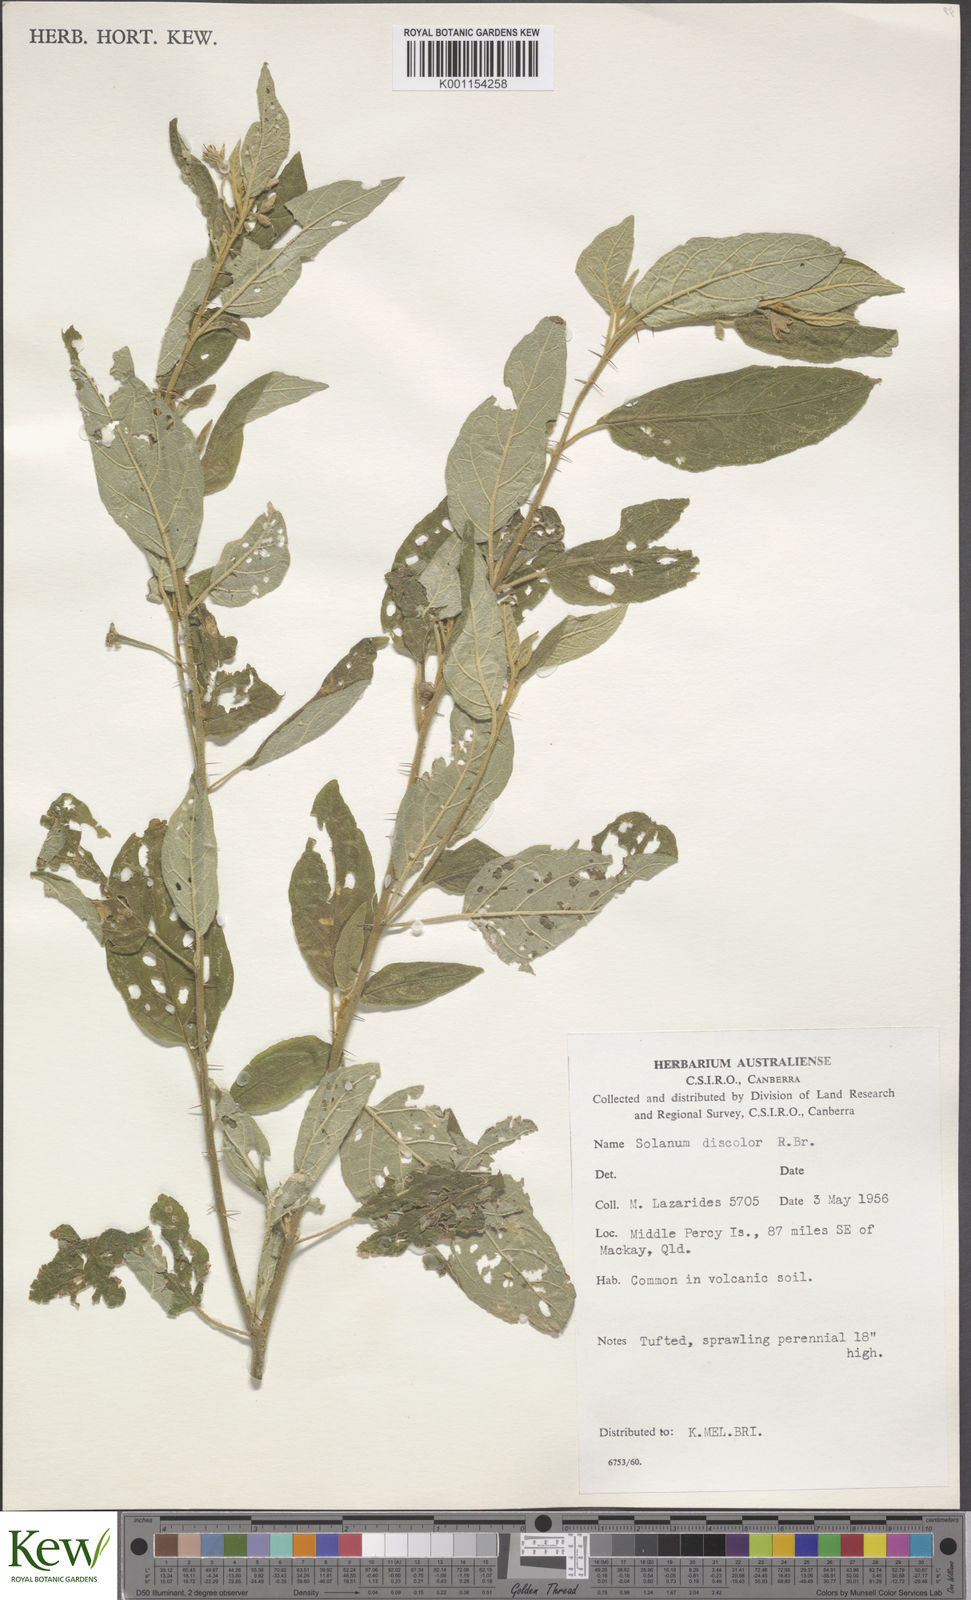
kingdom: Plantae
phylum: Tracheophyta
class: Magnoliopsida
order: Solanales
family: Solanaceae
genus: Solanum
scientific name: Solanum stelligerum
